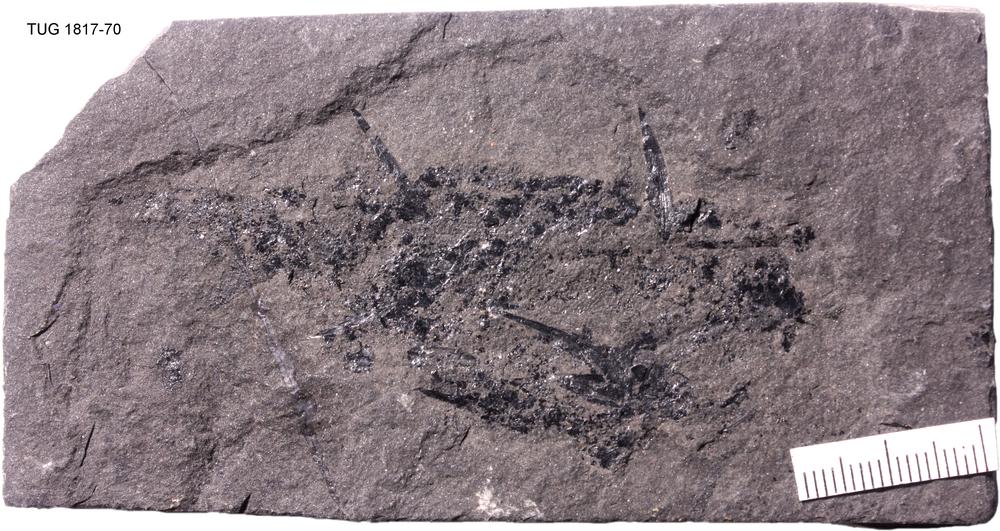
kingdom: Animalia
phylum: Chordata
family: Diplacanthidae
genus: Diplacanthus
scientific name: Diplacanthus crassisimus
